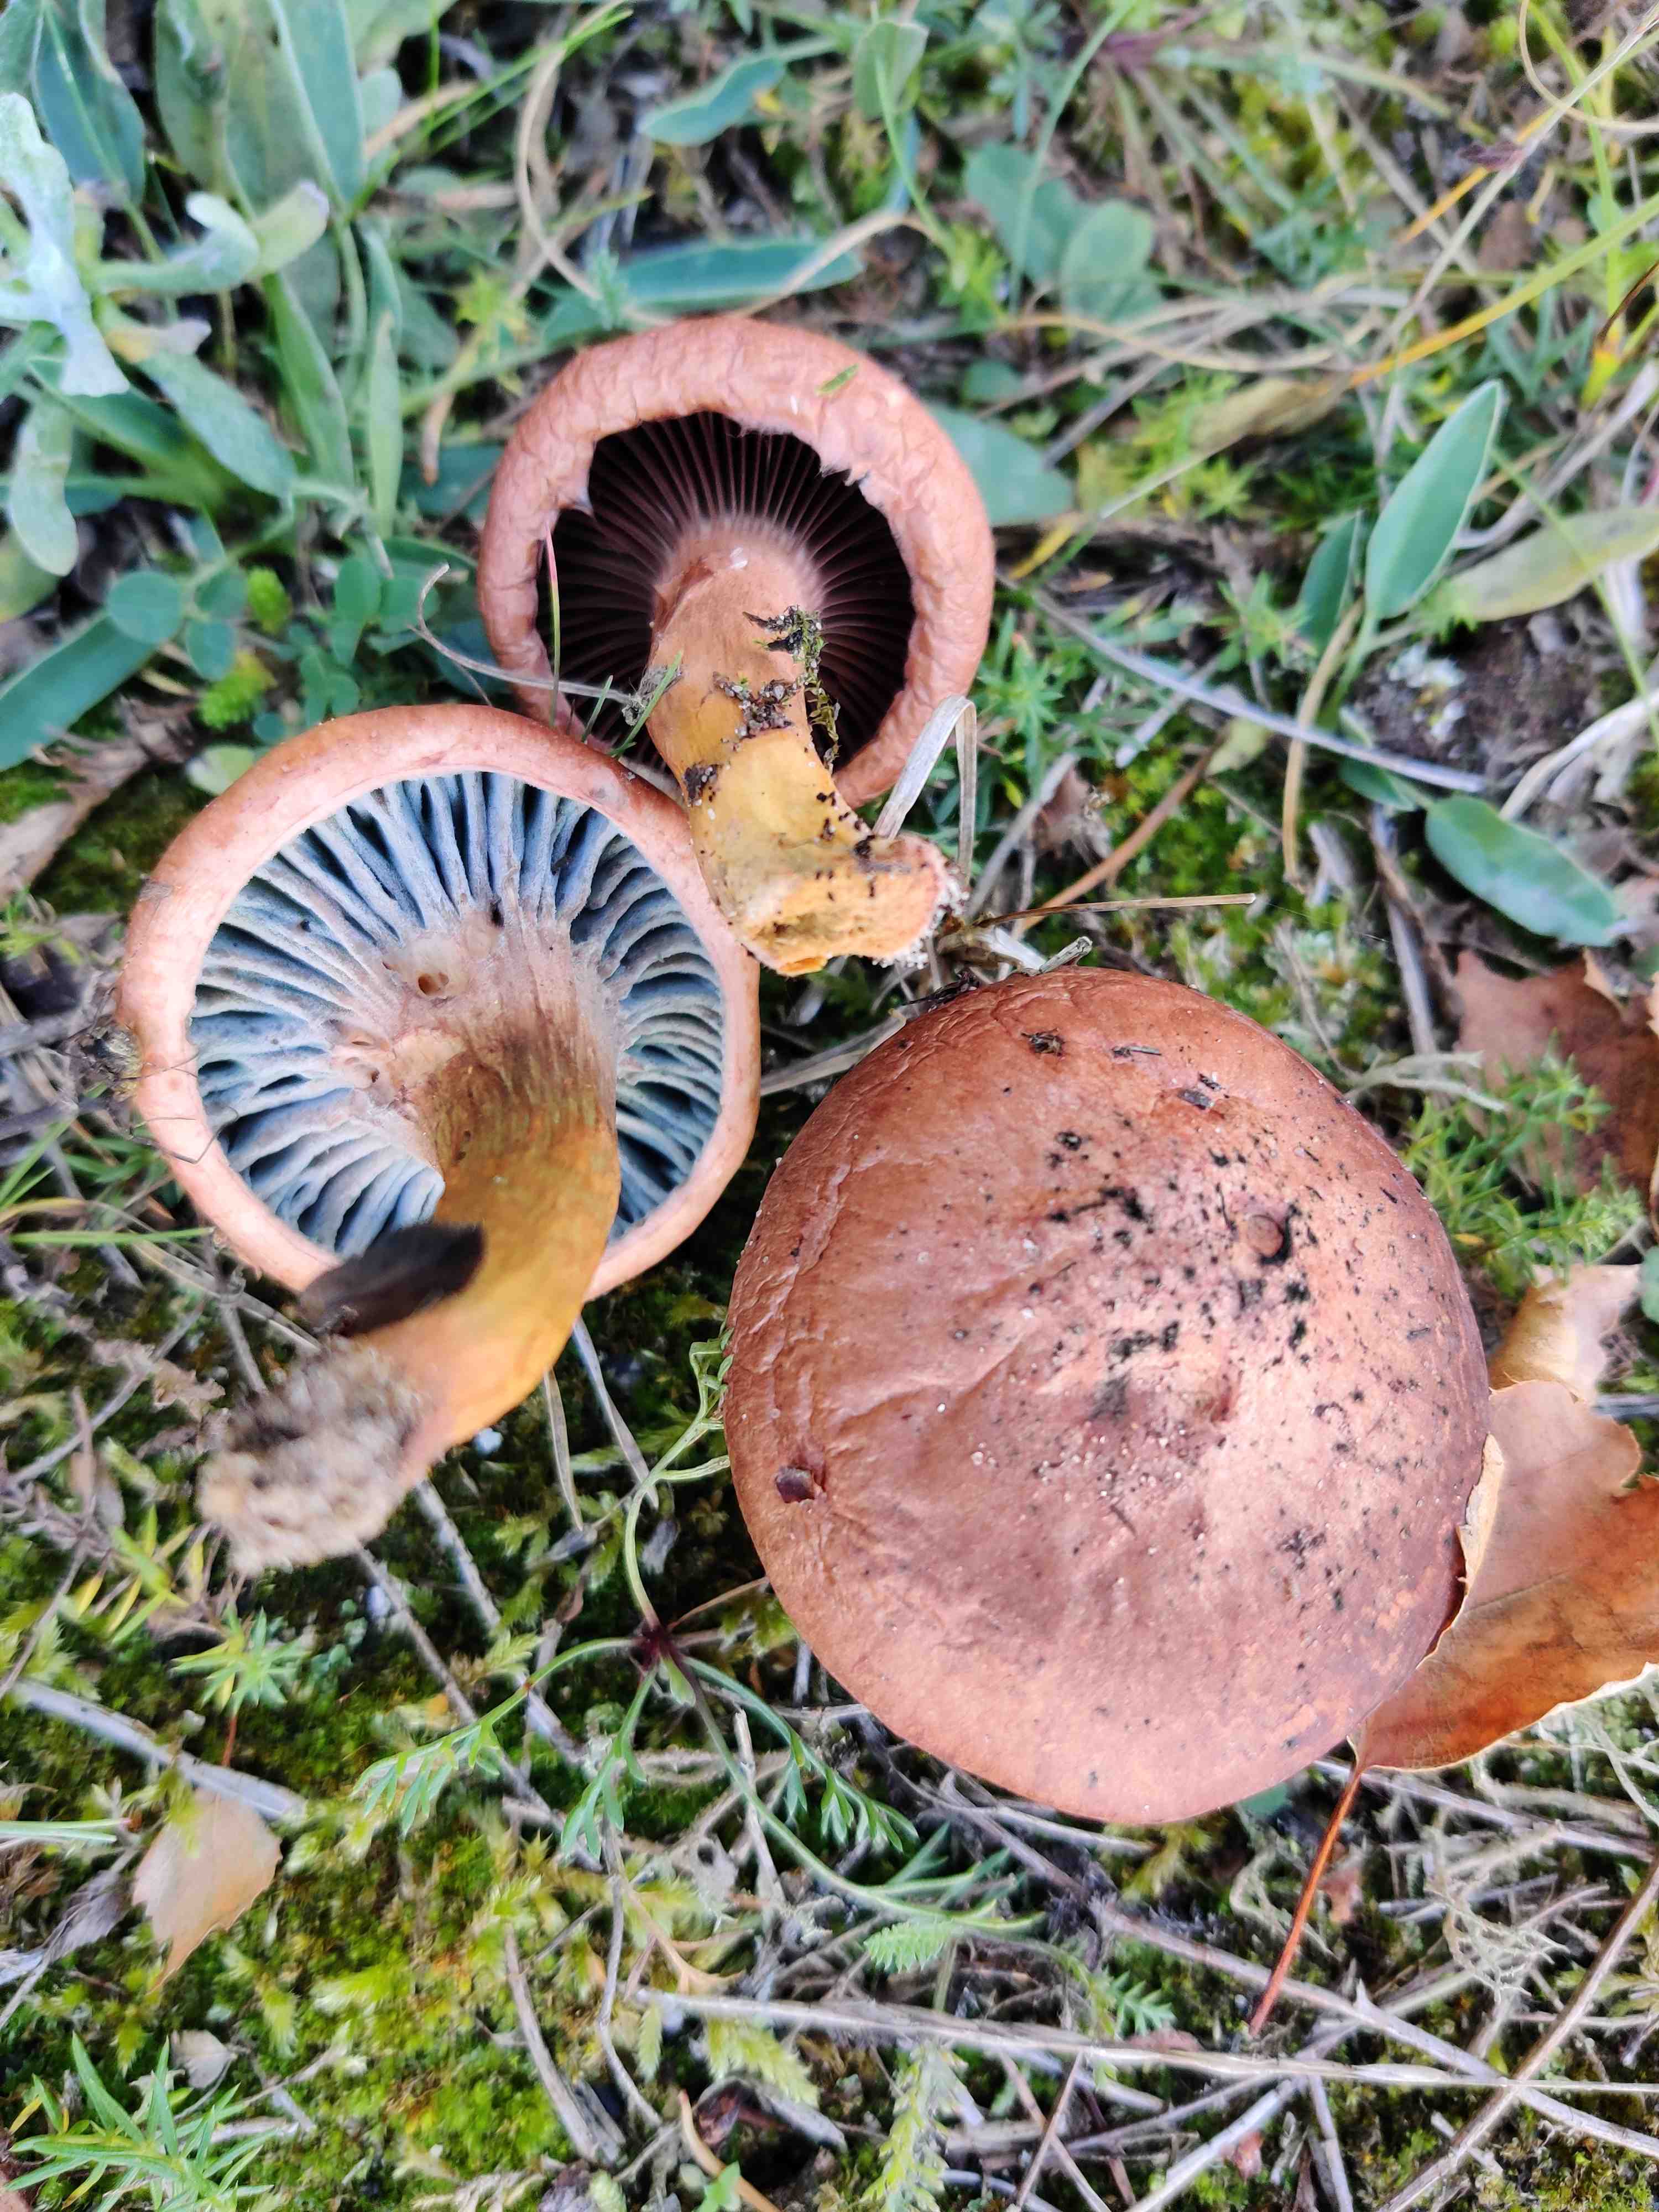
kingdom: Fungi
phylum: Basidiomycota
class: Agaricomycetes
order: Boletales
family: Gomphidiaceae
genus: Chroogomphus
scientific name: Chroogomphus rutilus
